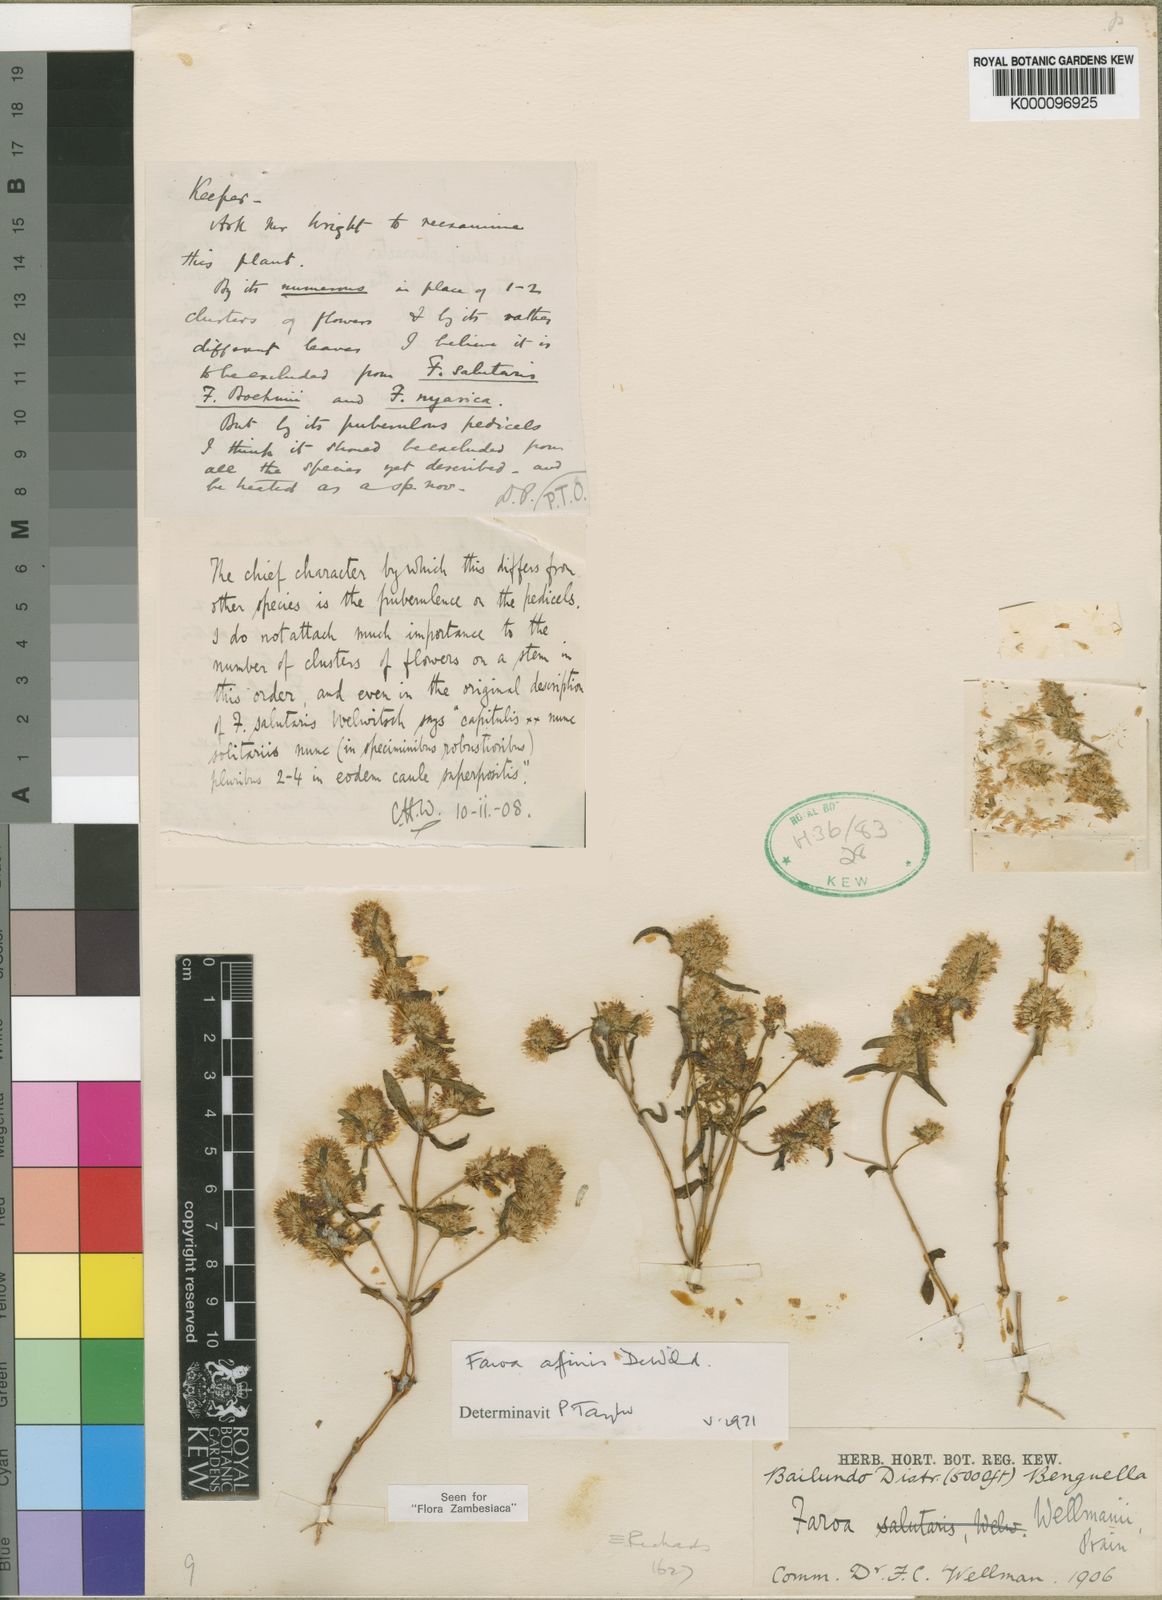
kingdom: Plantae
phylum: Tracheophyta
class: Magnoliopsida
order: Gentianales
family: Gentianaceae
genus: Faroa
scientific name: Faroa affinis
